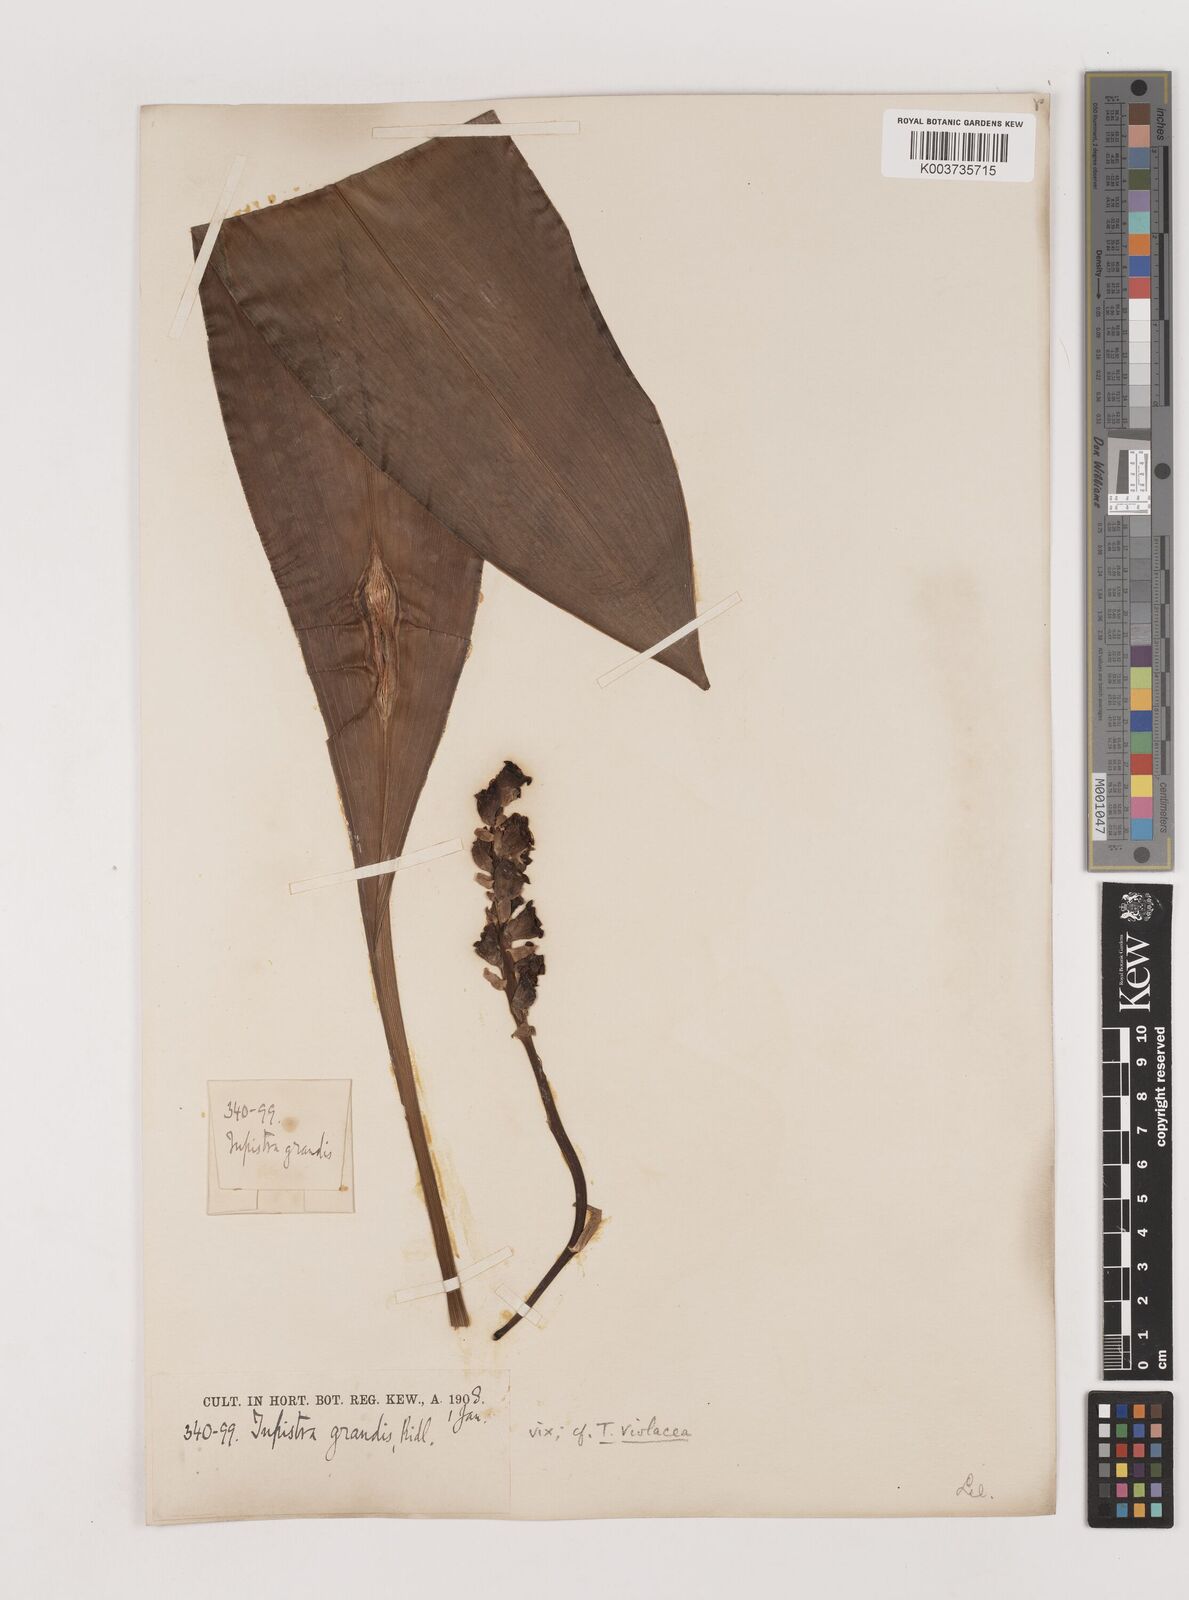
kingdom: Plantae
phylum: Tracheophyta
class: Liliopsida
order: Asparagales
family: Asparagaceae
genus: Tupistra
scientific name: Tupistra violacea
